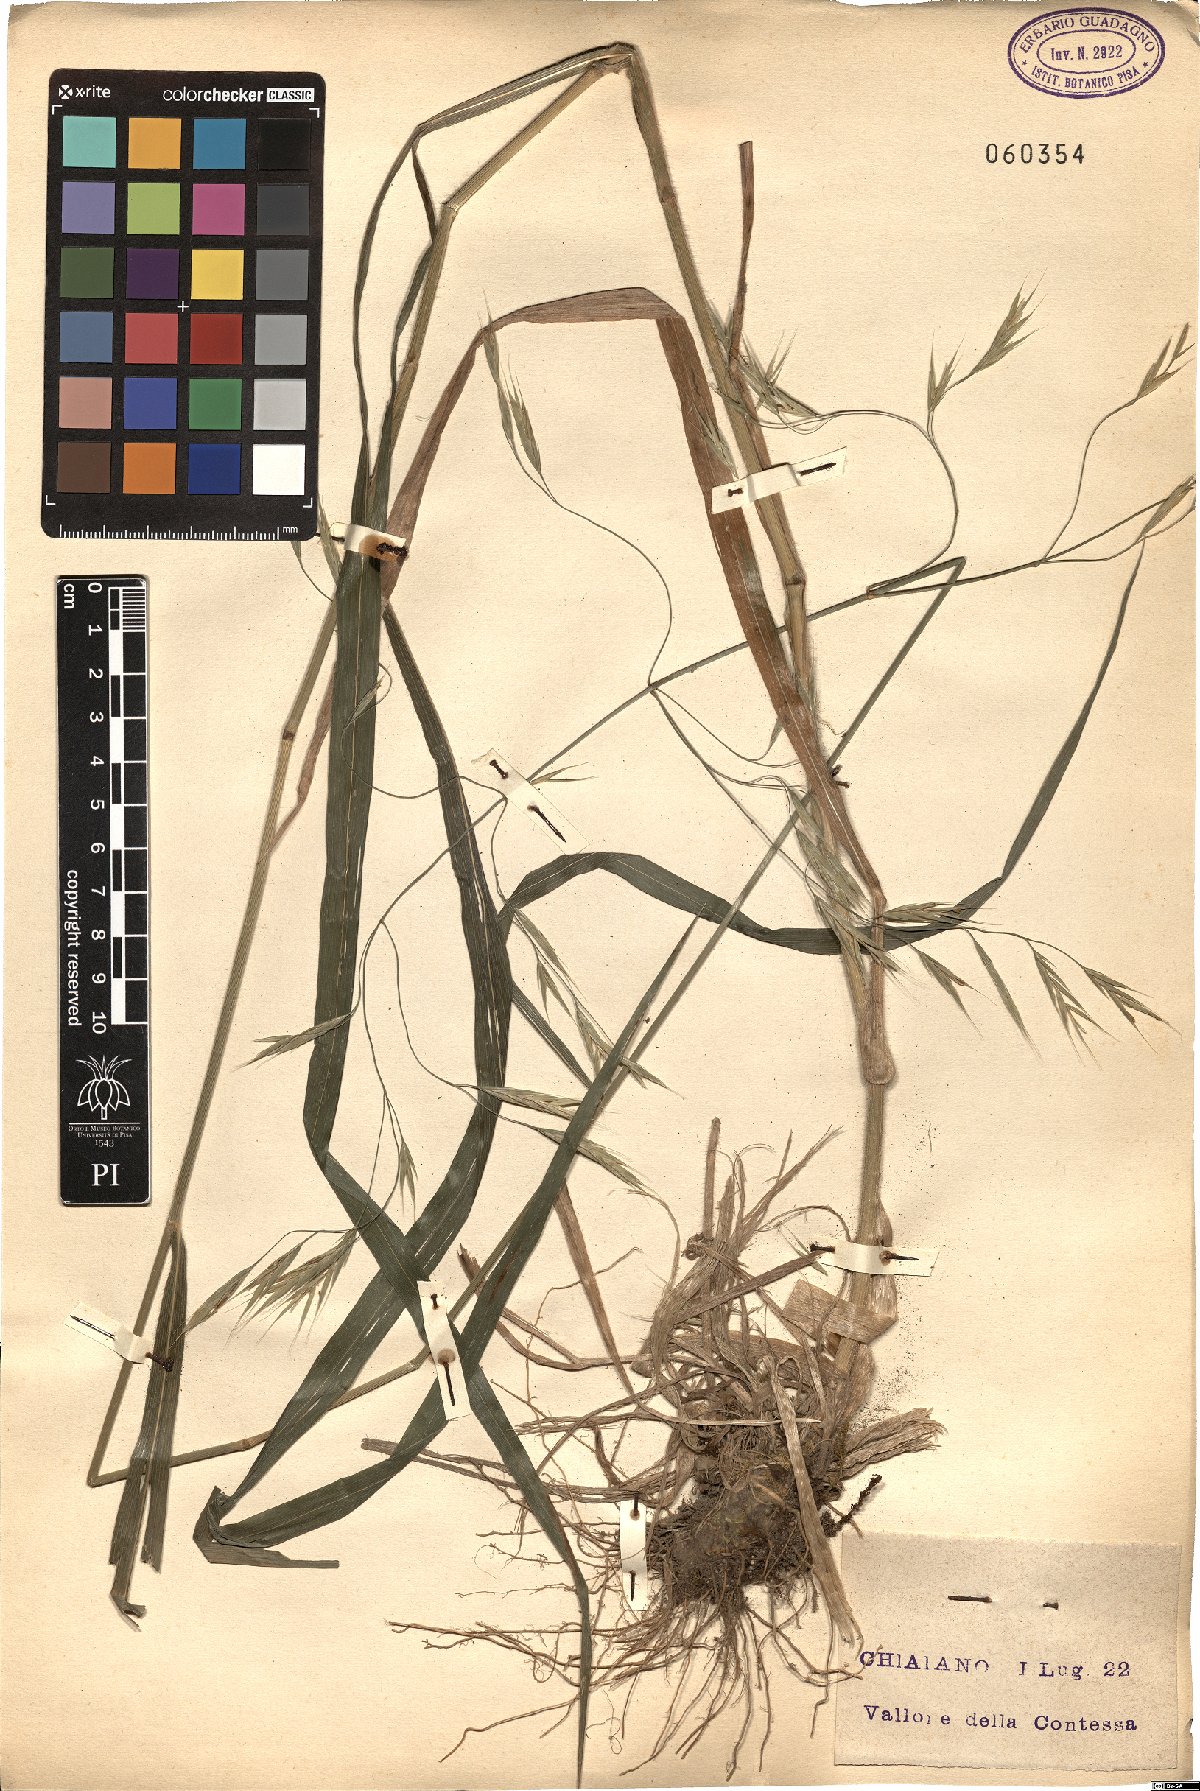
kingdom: Plantae
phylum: Tracheophyta
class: Liliopsida
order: Poales
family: Poaceae
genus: Bromus
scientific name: Bromus ramosus
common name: Hairy brome
